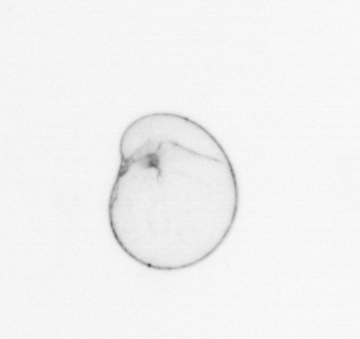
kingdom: Chromista
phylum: Myzozoa
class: Dinophyceae
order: Noctilucales
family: Noctilucaceae
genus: Noctiluca
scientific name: Noctiluca scintillans
